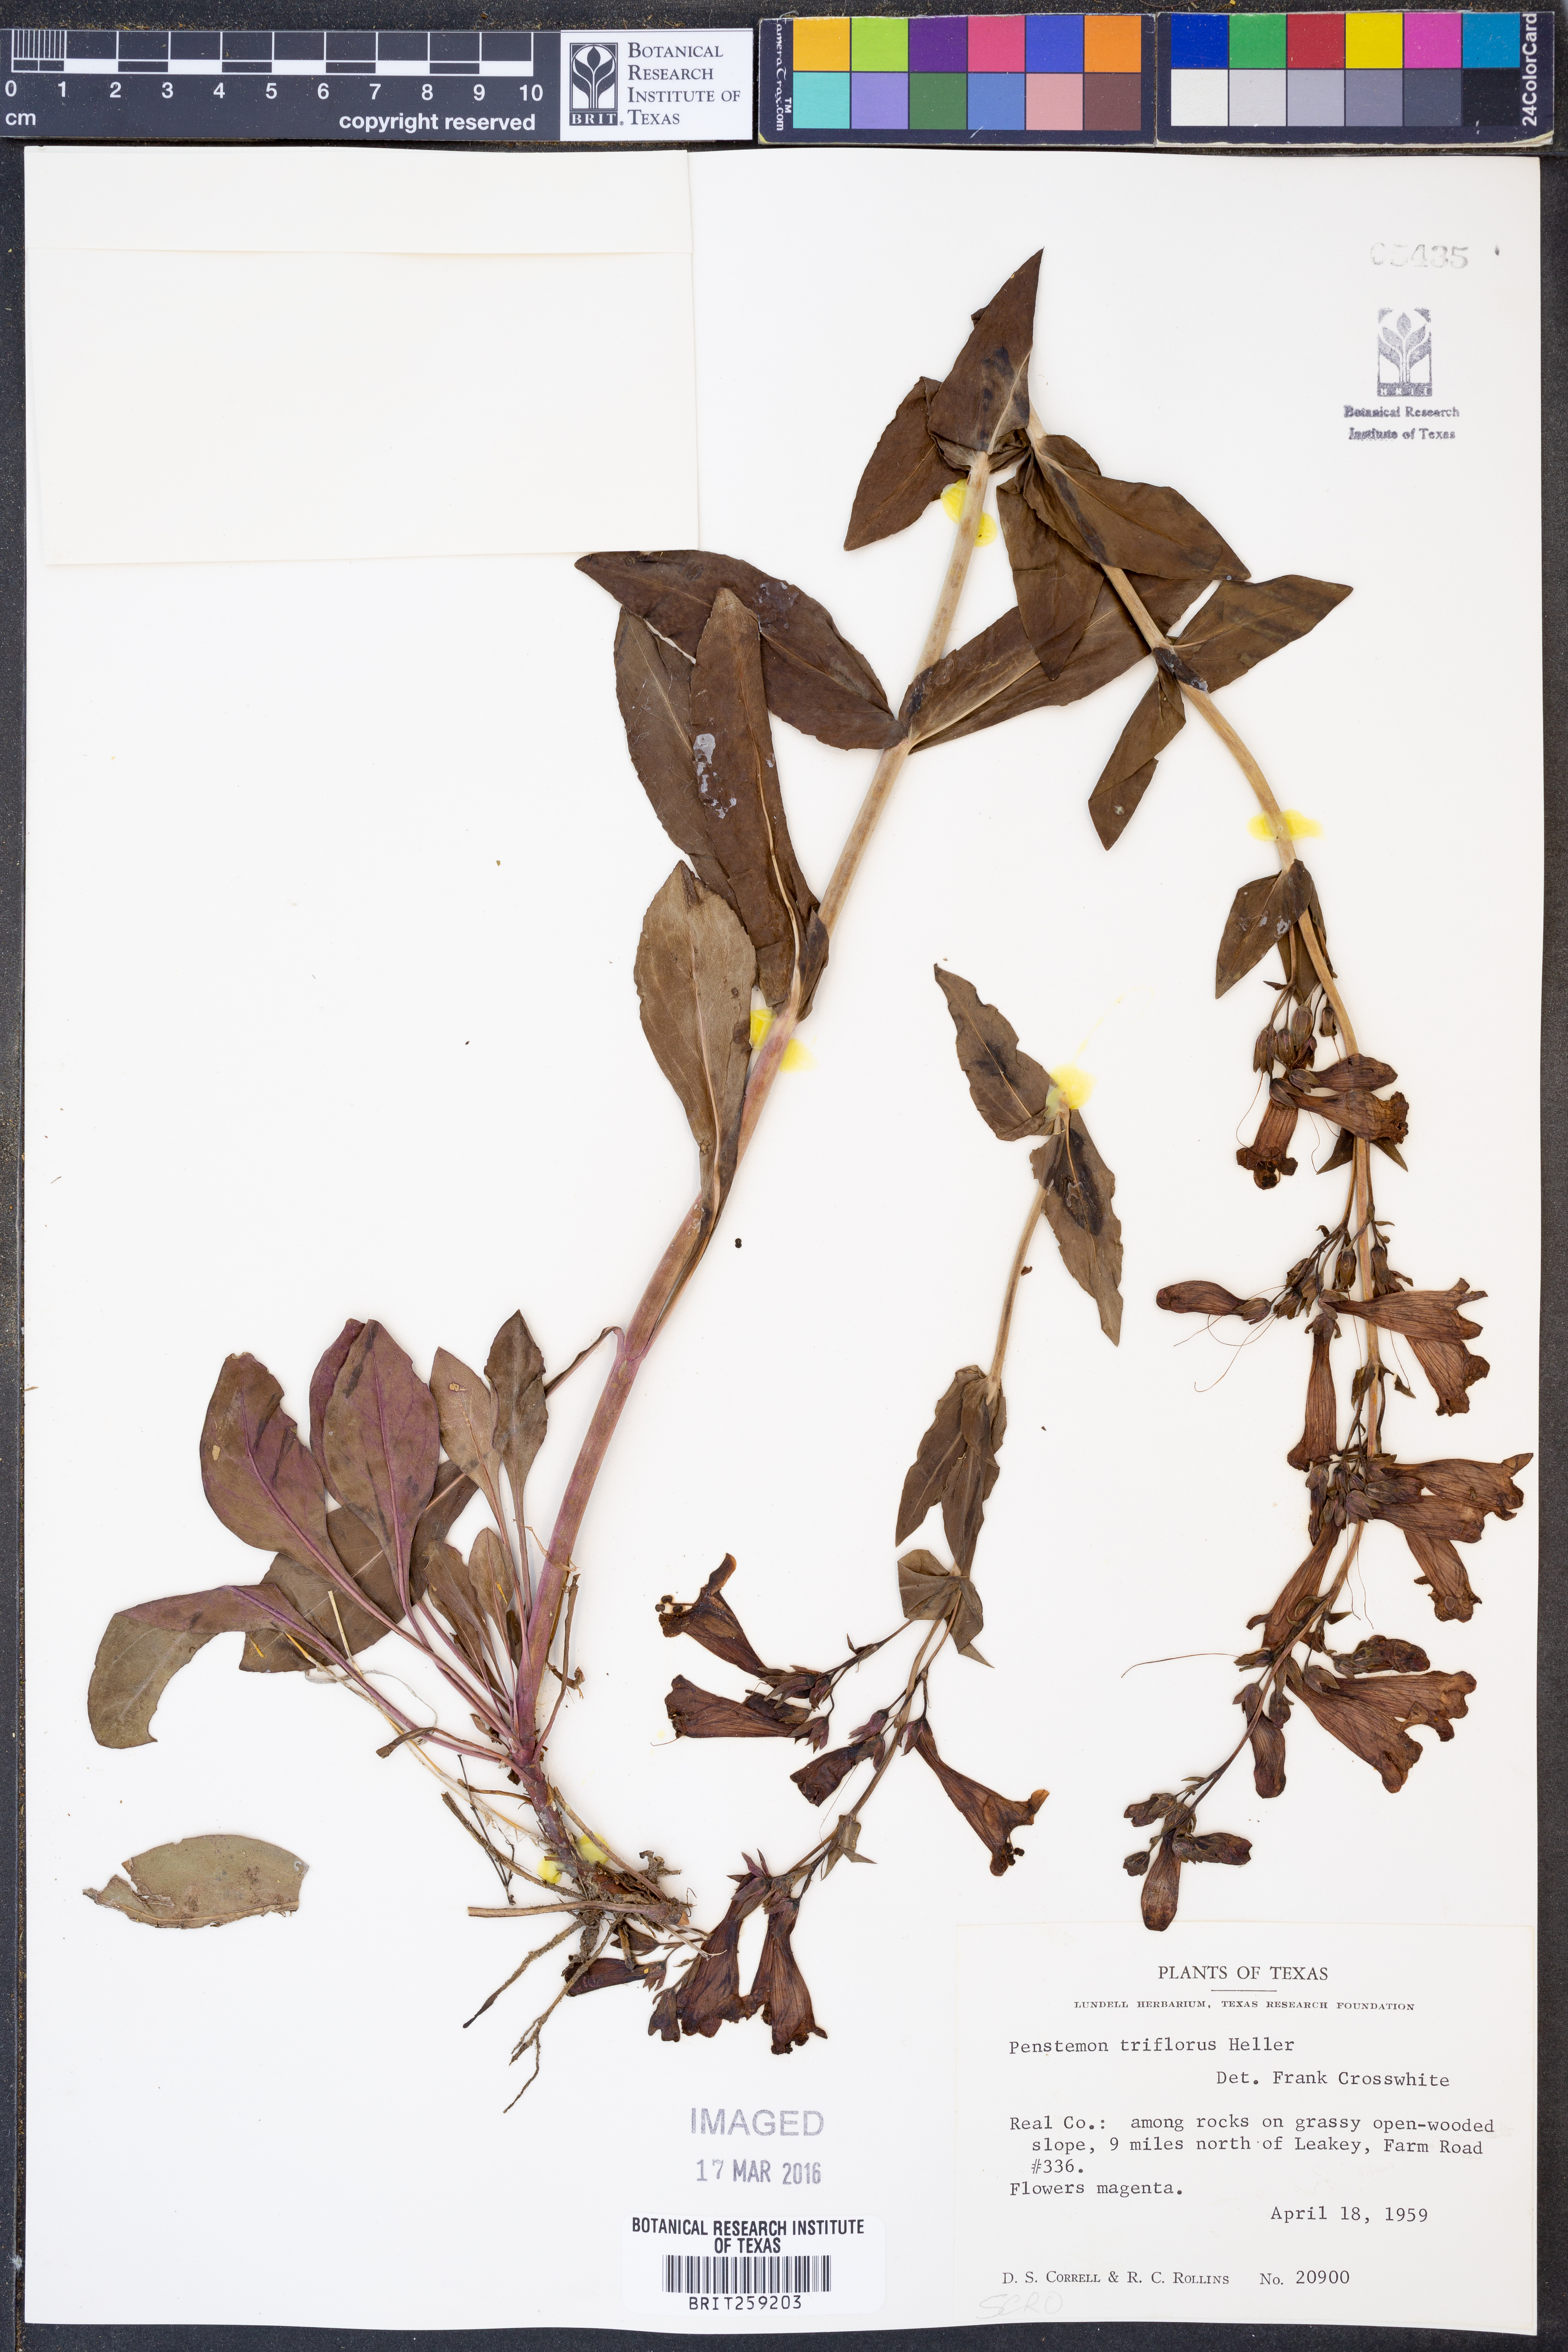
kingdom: Plantae
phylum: Tracheophyta
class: Magnoliopsida
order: Lamiales
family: Plantaginaceae
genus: Penstemon
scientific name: Penstemon triflorus
